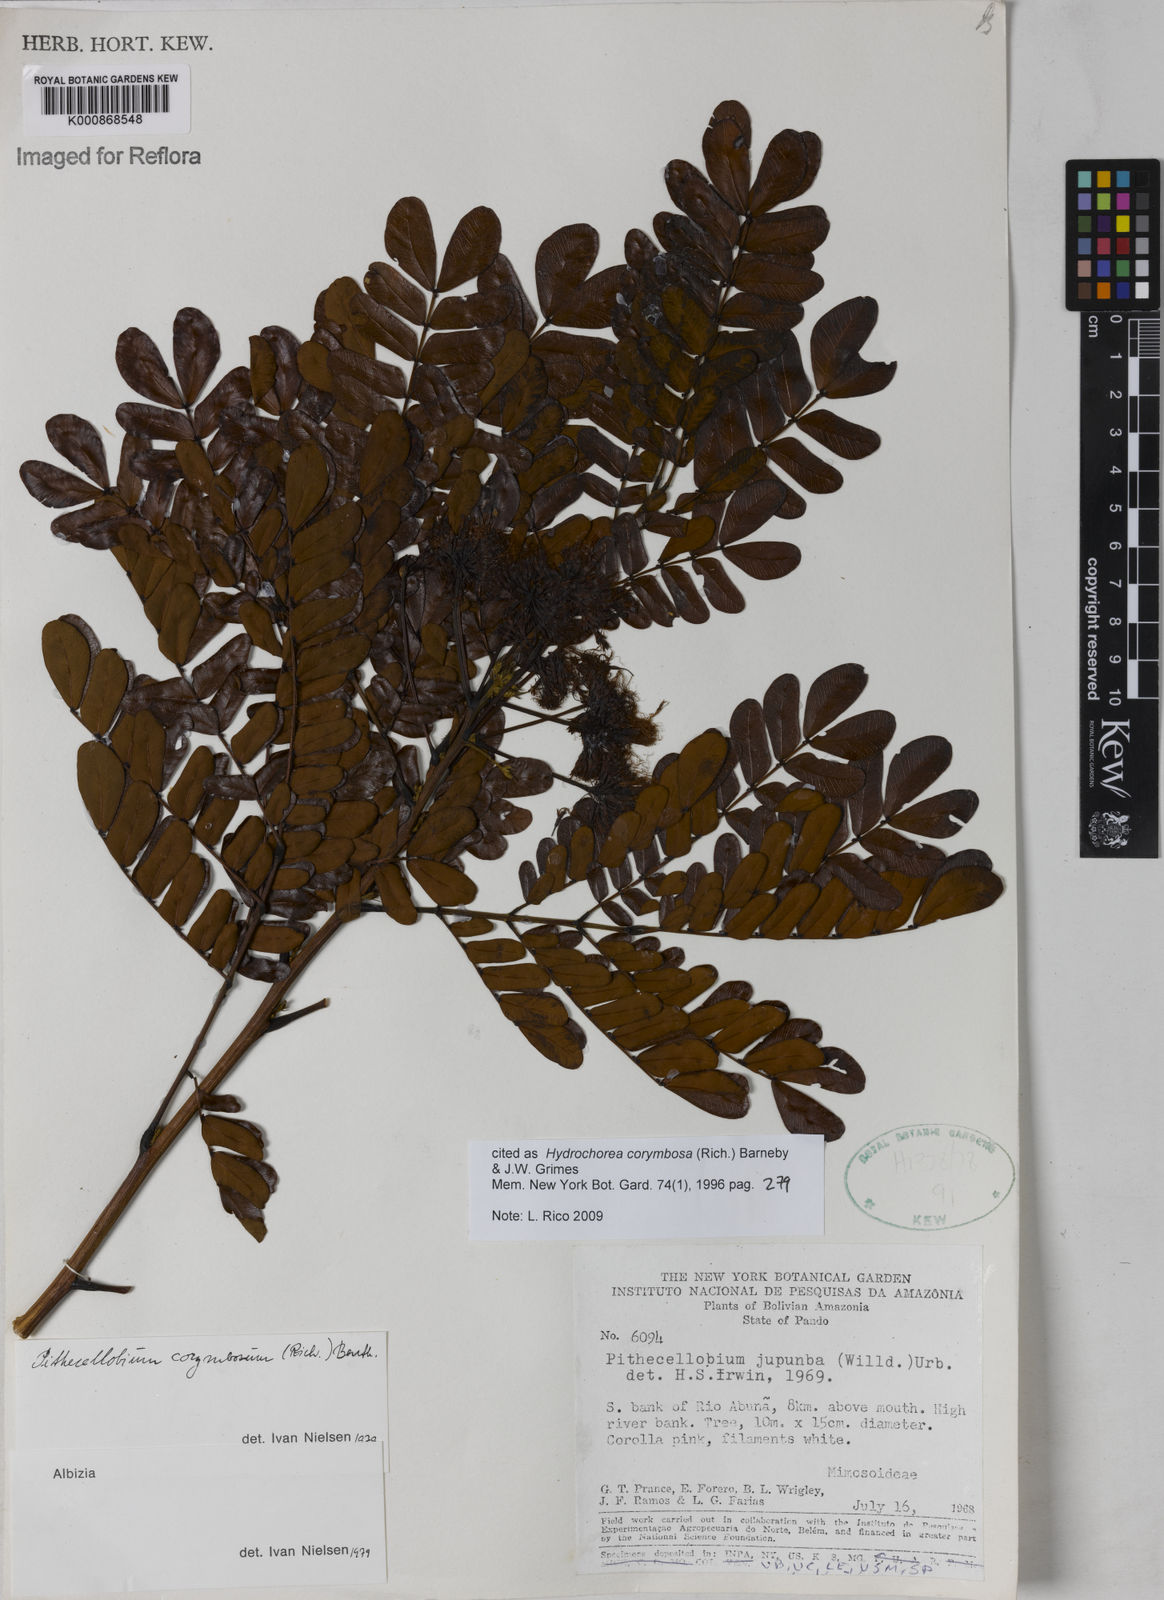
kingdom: Plantae
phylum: Tracheophyta
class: Magnoliopsida
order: Fabales
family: Fabaceae
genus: Hydrochorea
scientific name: Hydrochorea corymbosa
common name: Swamp manariballi
